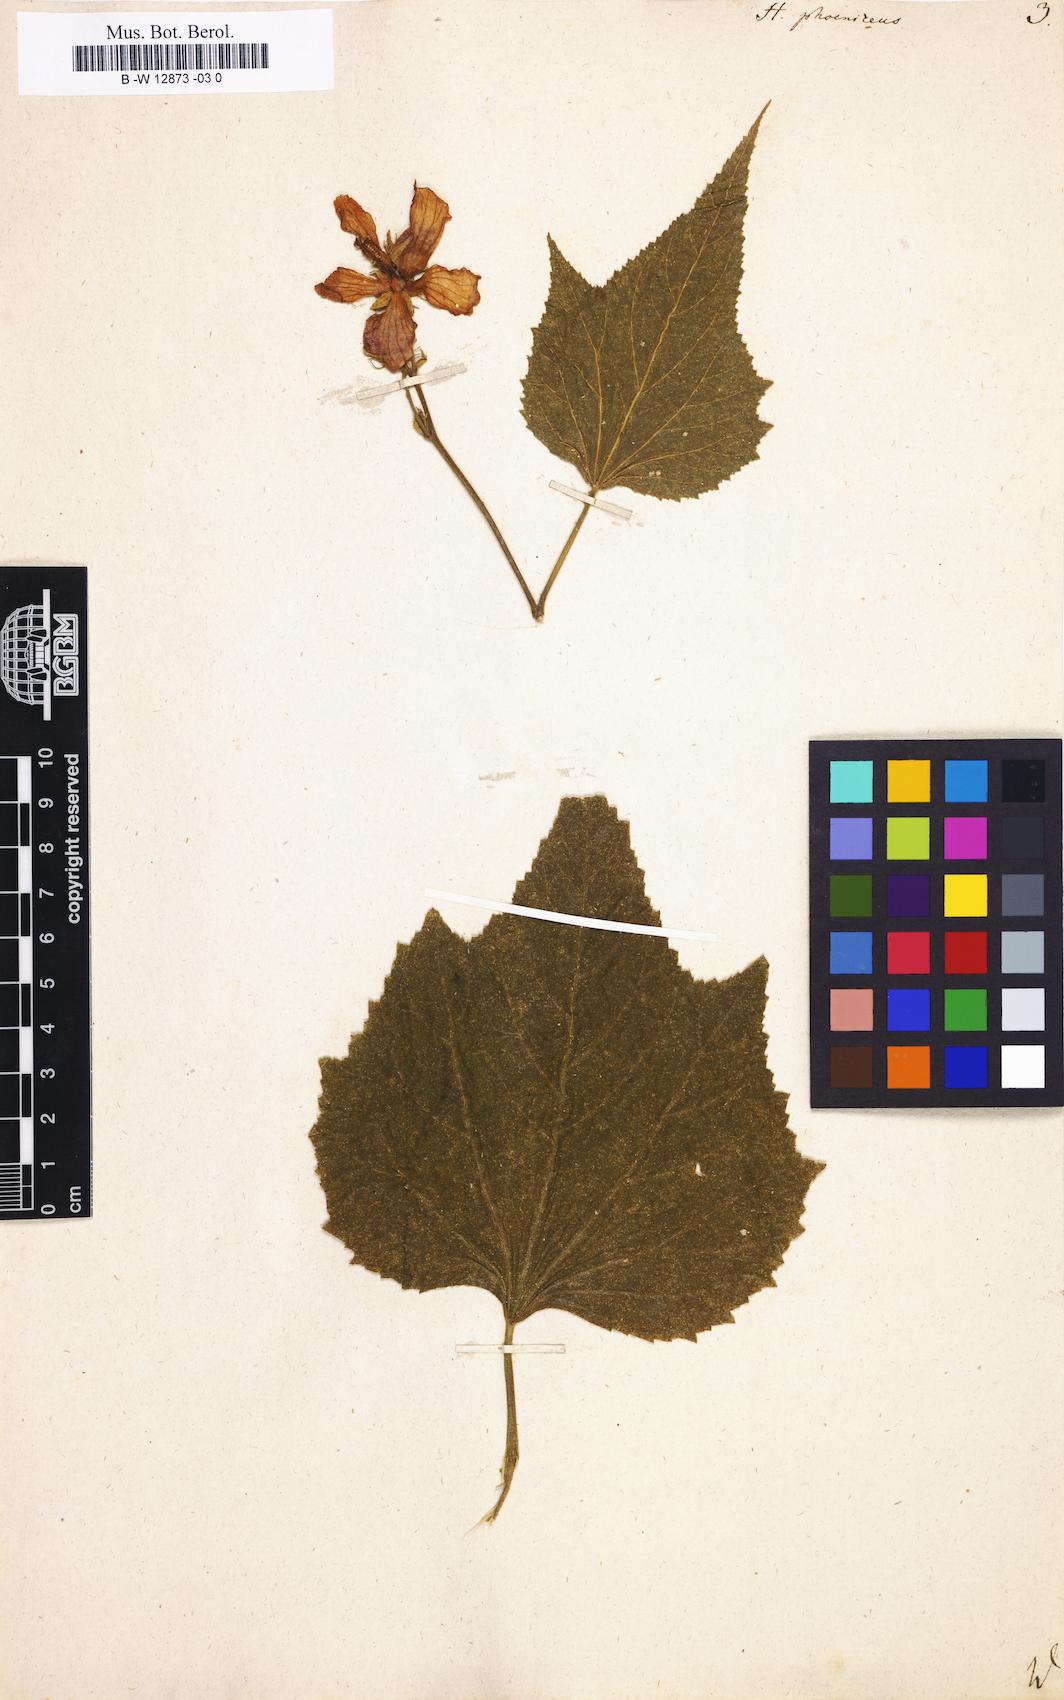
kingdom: Plantae
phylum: Tracheophyta
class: Magnoliopsida
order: Malvales
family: Malvaceae
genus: Hibiscus
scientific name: Hibiscus phoeniceus
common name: Brazilian rosemallow
